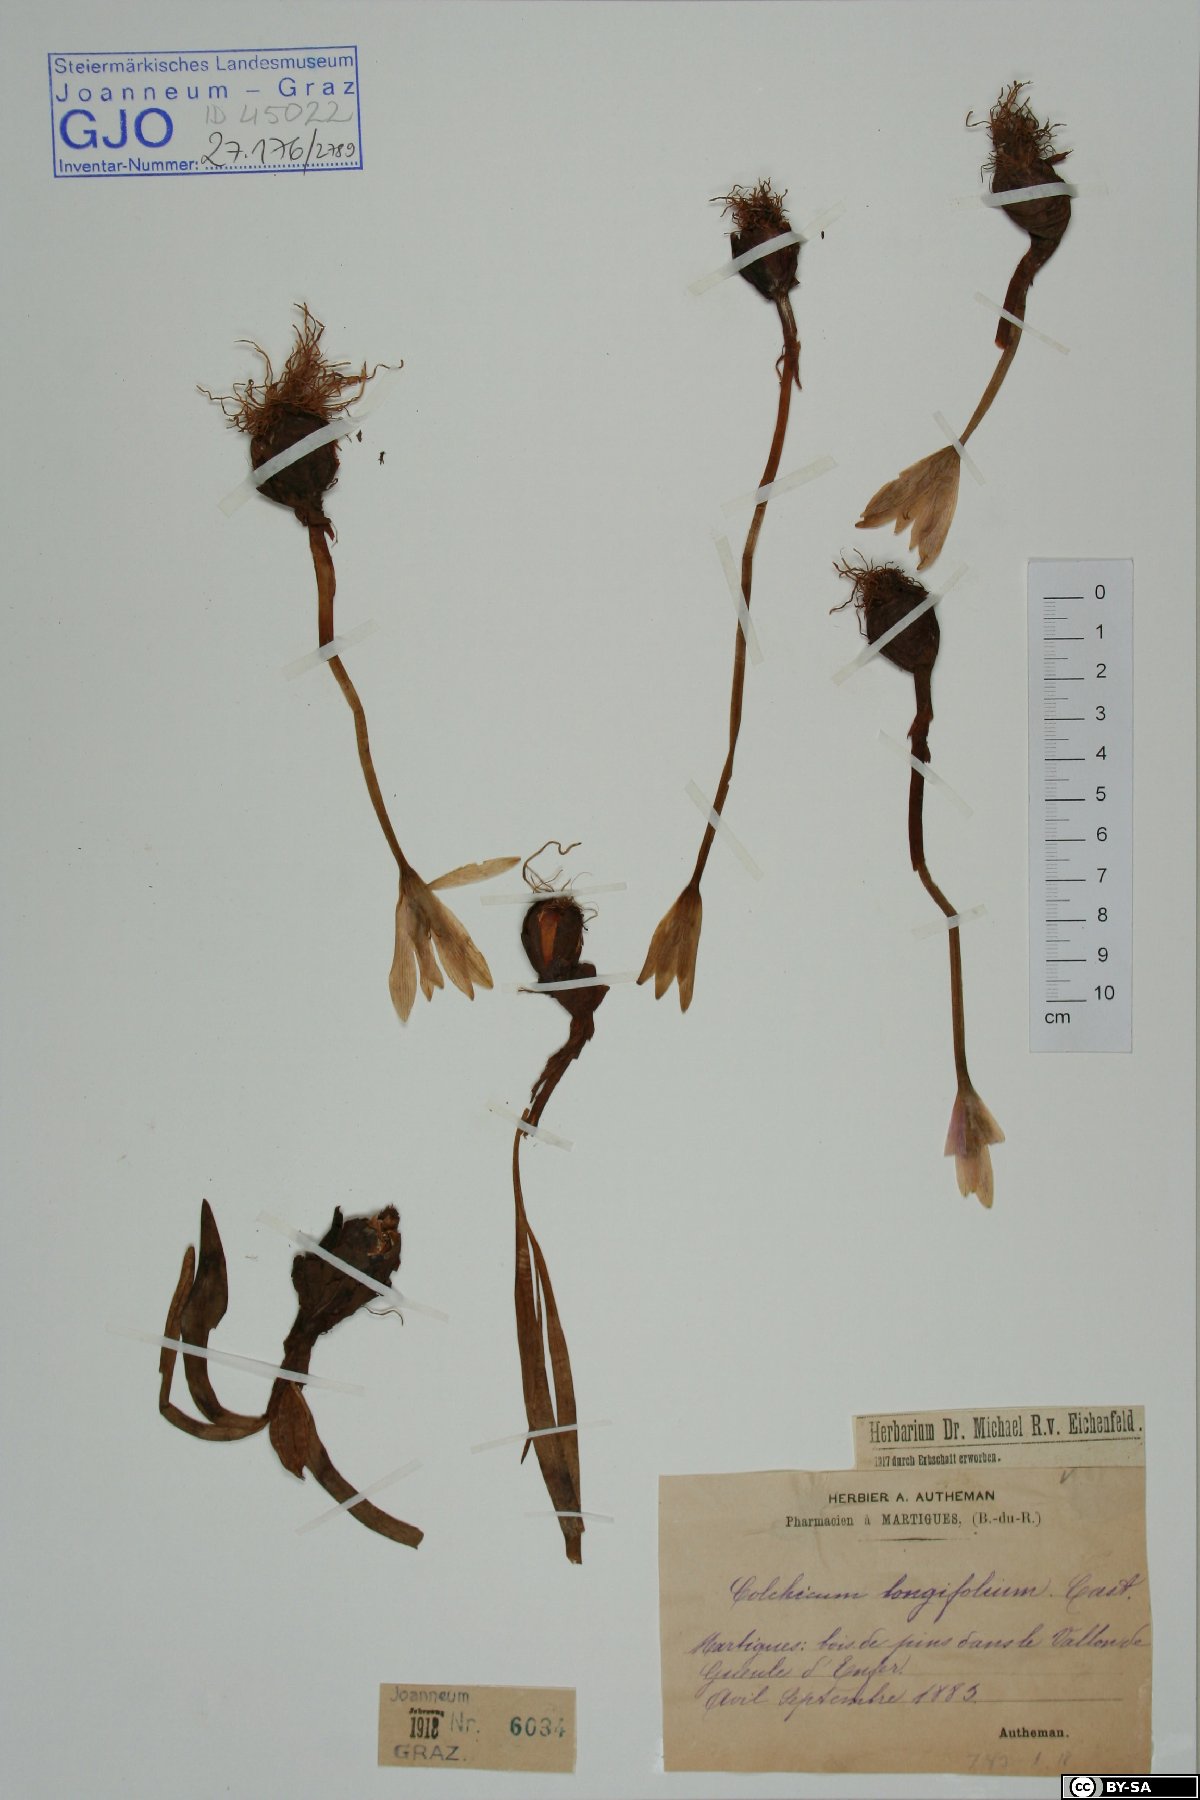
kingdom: Plantae
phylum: Tracheophyta
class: Liliopsida
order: Liliales
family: Colchicaceae
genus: Colchicum
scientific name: Colchicum longifolium
